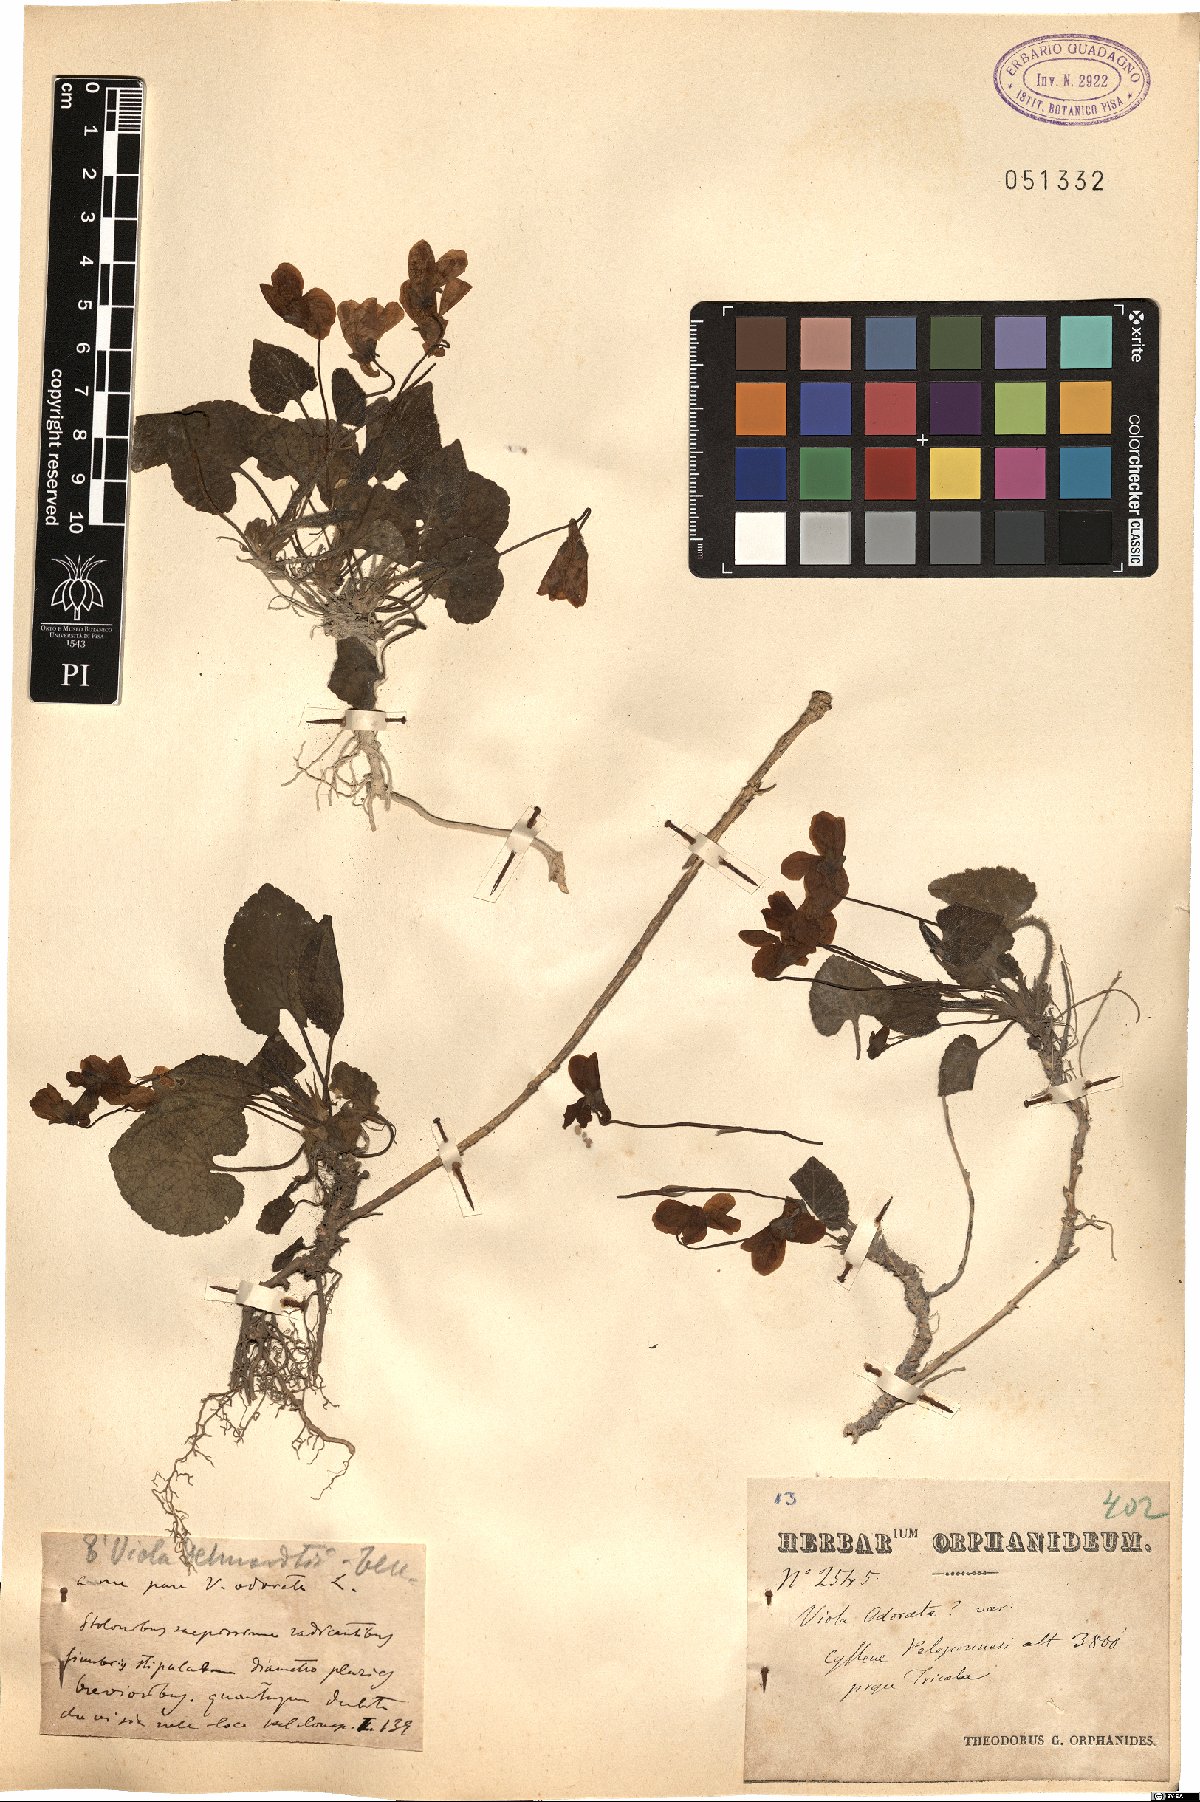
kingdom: Plantae
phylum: Tracheophyta
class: Magnoliopsida
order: Malpighiales
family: Violaceae
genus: Viola
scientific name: Viola alba
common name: White violet
